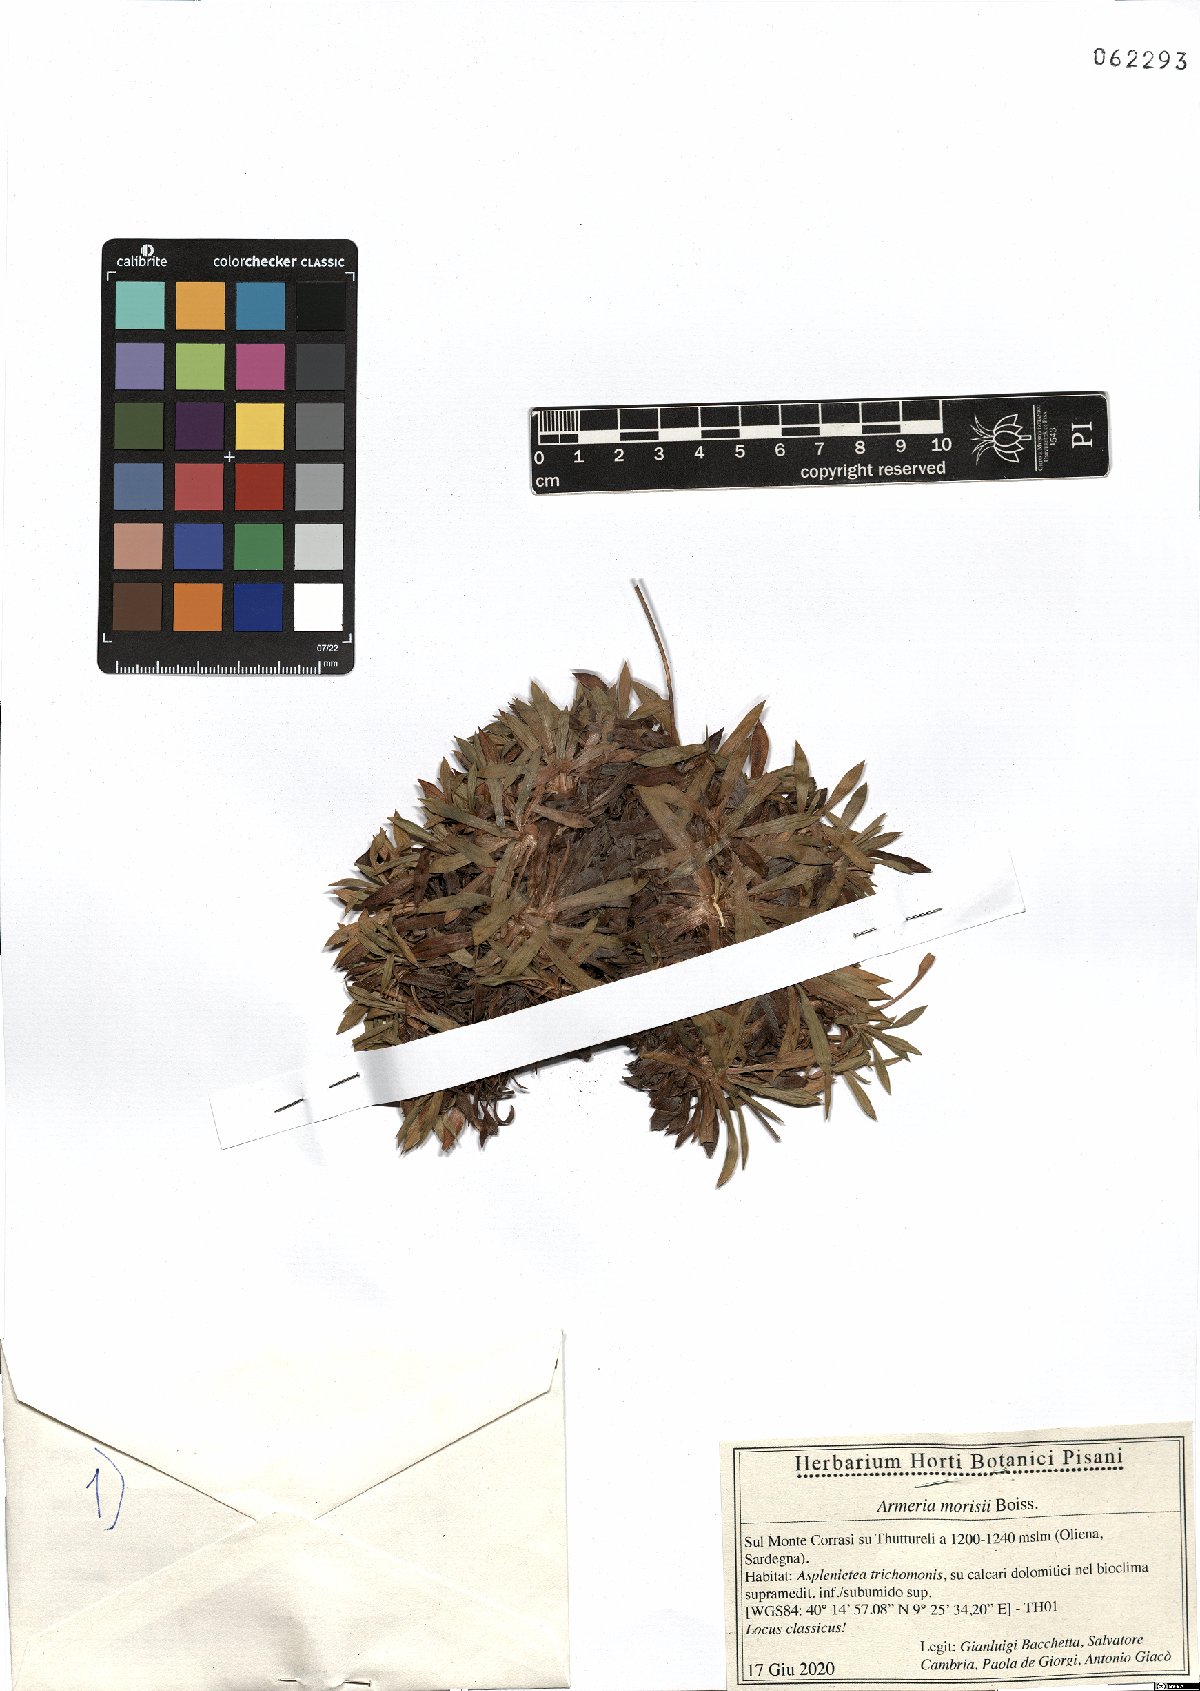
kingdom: Plantae
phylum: Tracheophyta
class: Magnoliopsida
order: Caryophyllales
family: Plumbaginaceae
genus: Armeria
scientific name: Armeria morisii
